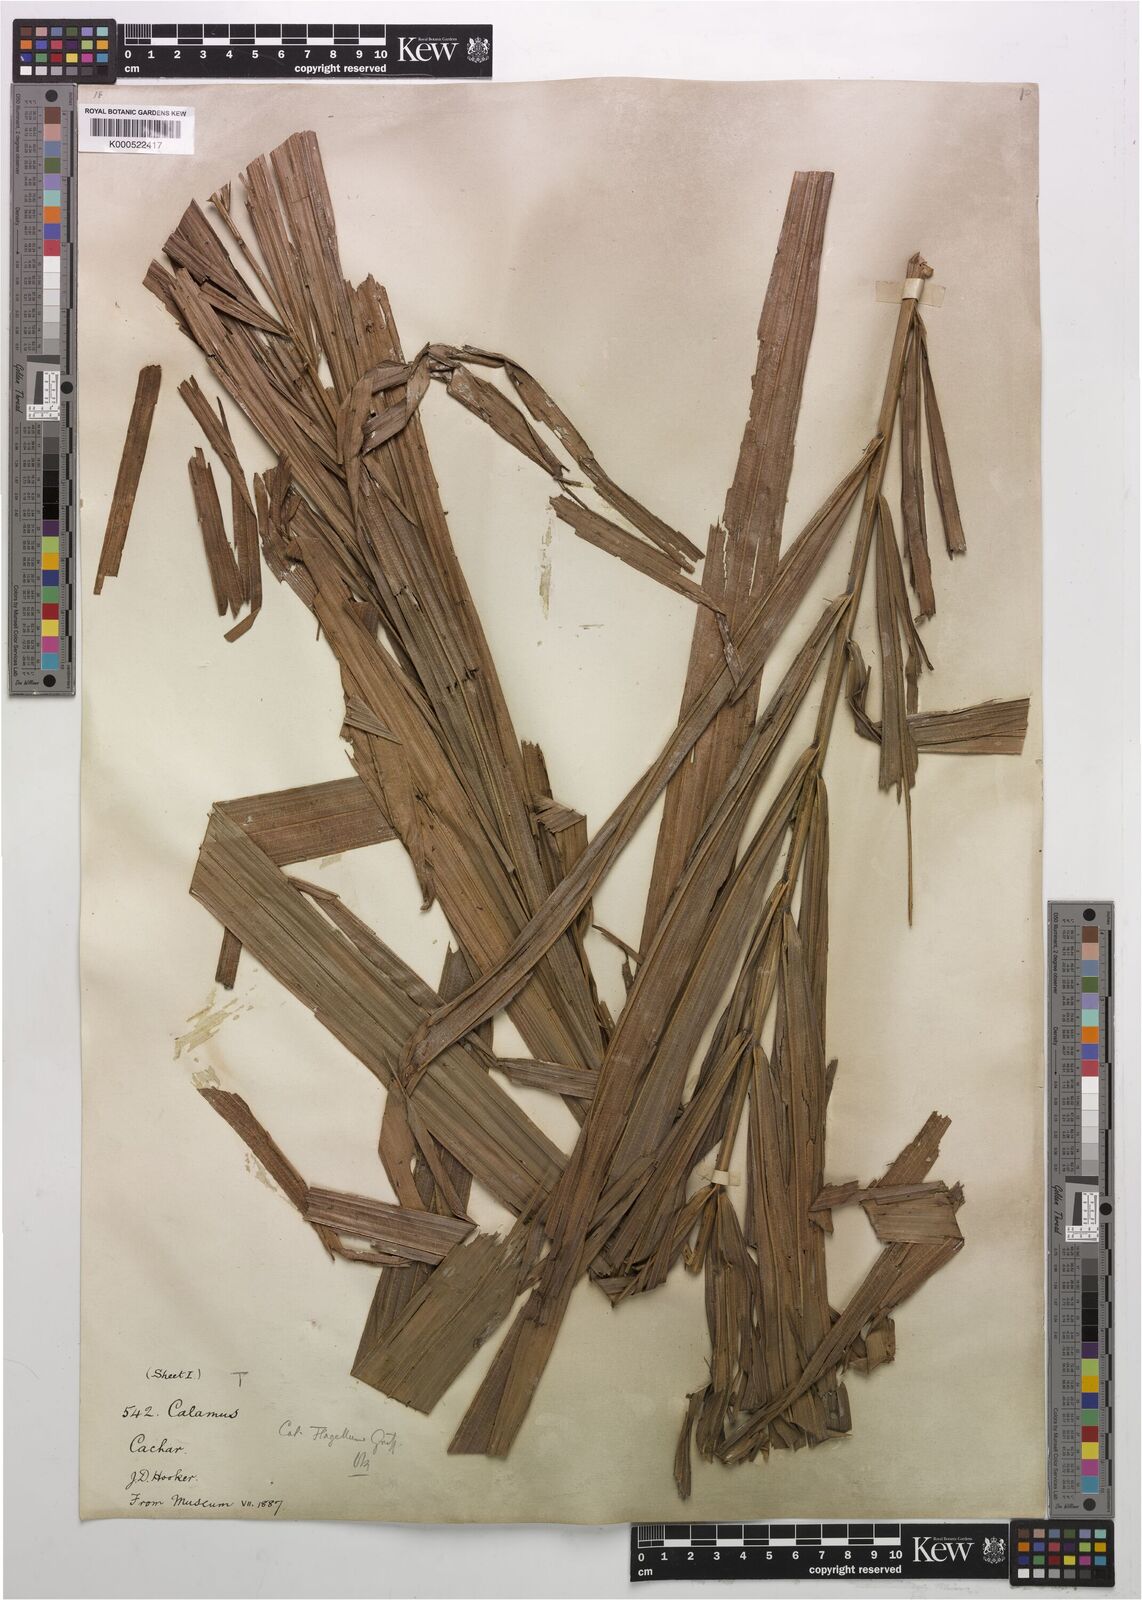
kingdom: Plantae
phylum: Tracheophyta
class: Liliopsida
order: Arecales
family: Arecaceae
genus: Calamus
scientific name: Calamus
